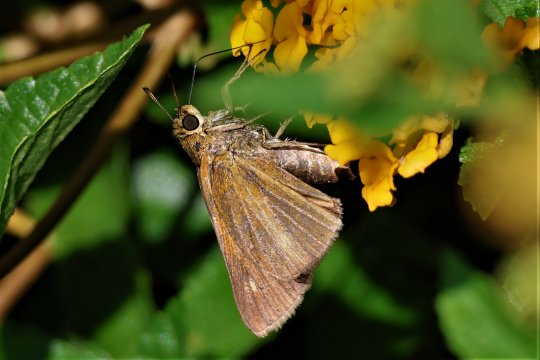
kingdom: Animalia
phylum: Arthropoda
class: Insecta
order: Lepidoptera
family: Hesperiidae
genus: Euphyes
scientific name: Euphyes dion
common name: Dion Skipper
